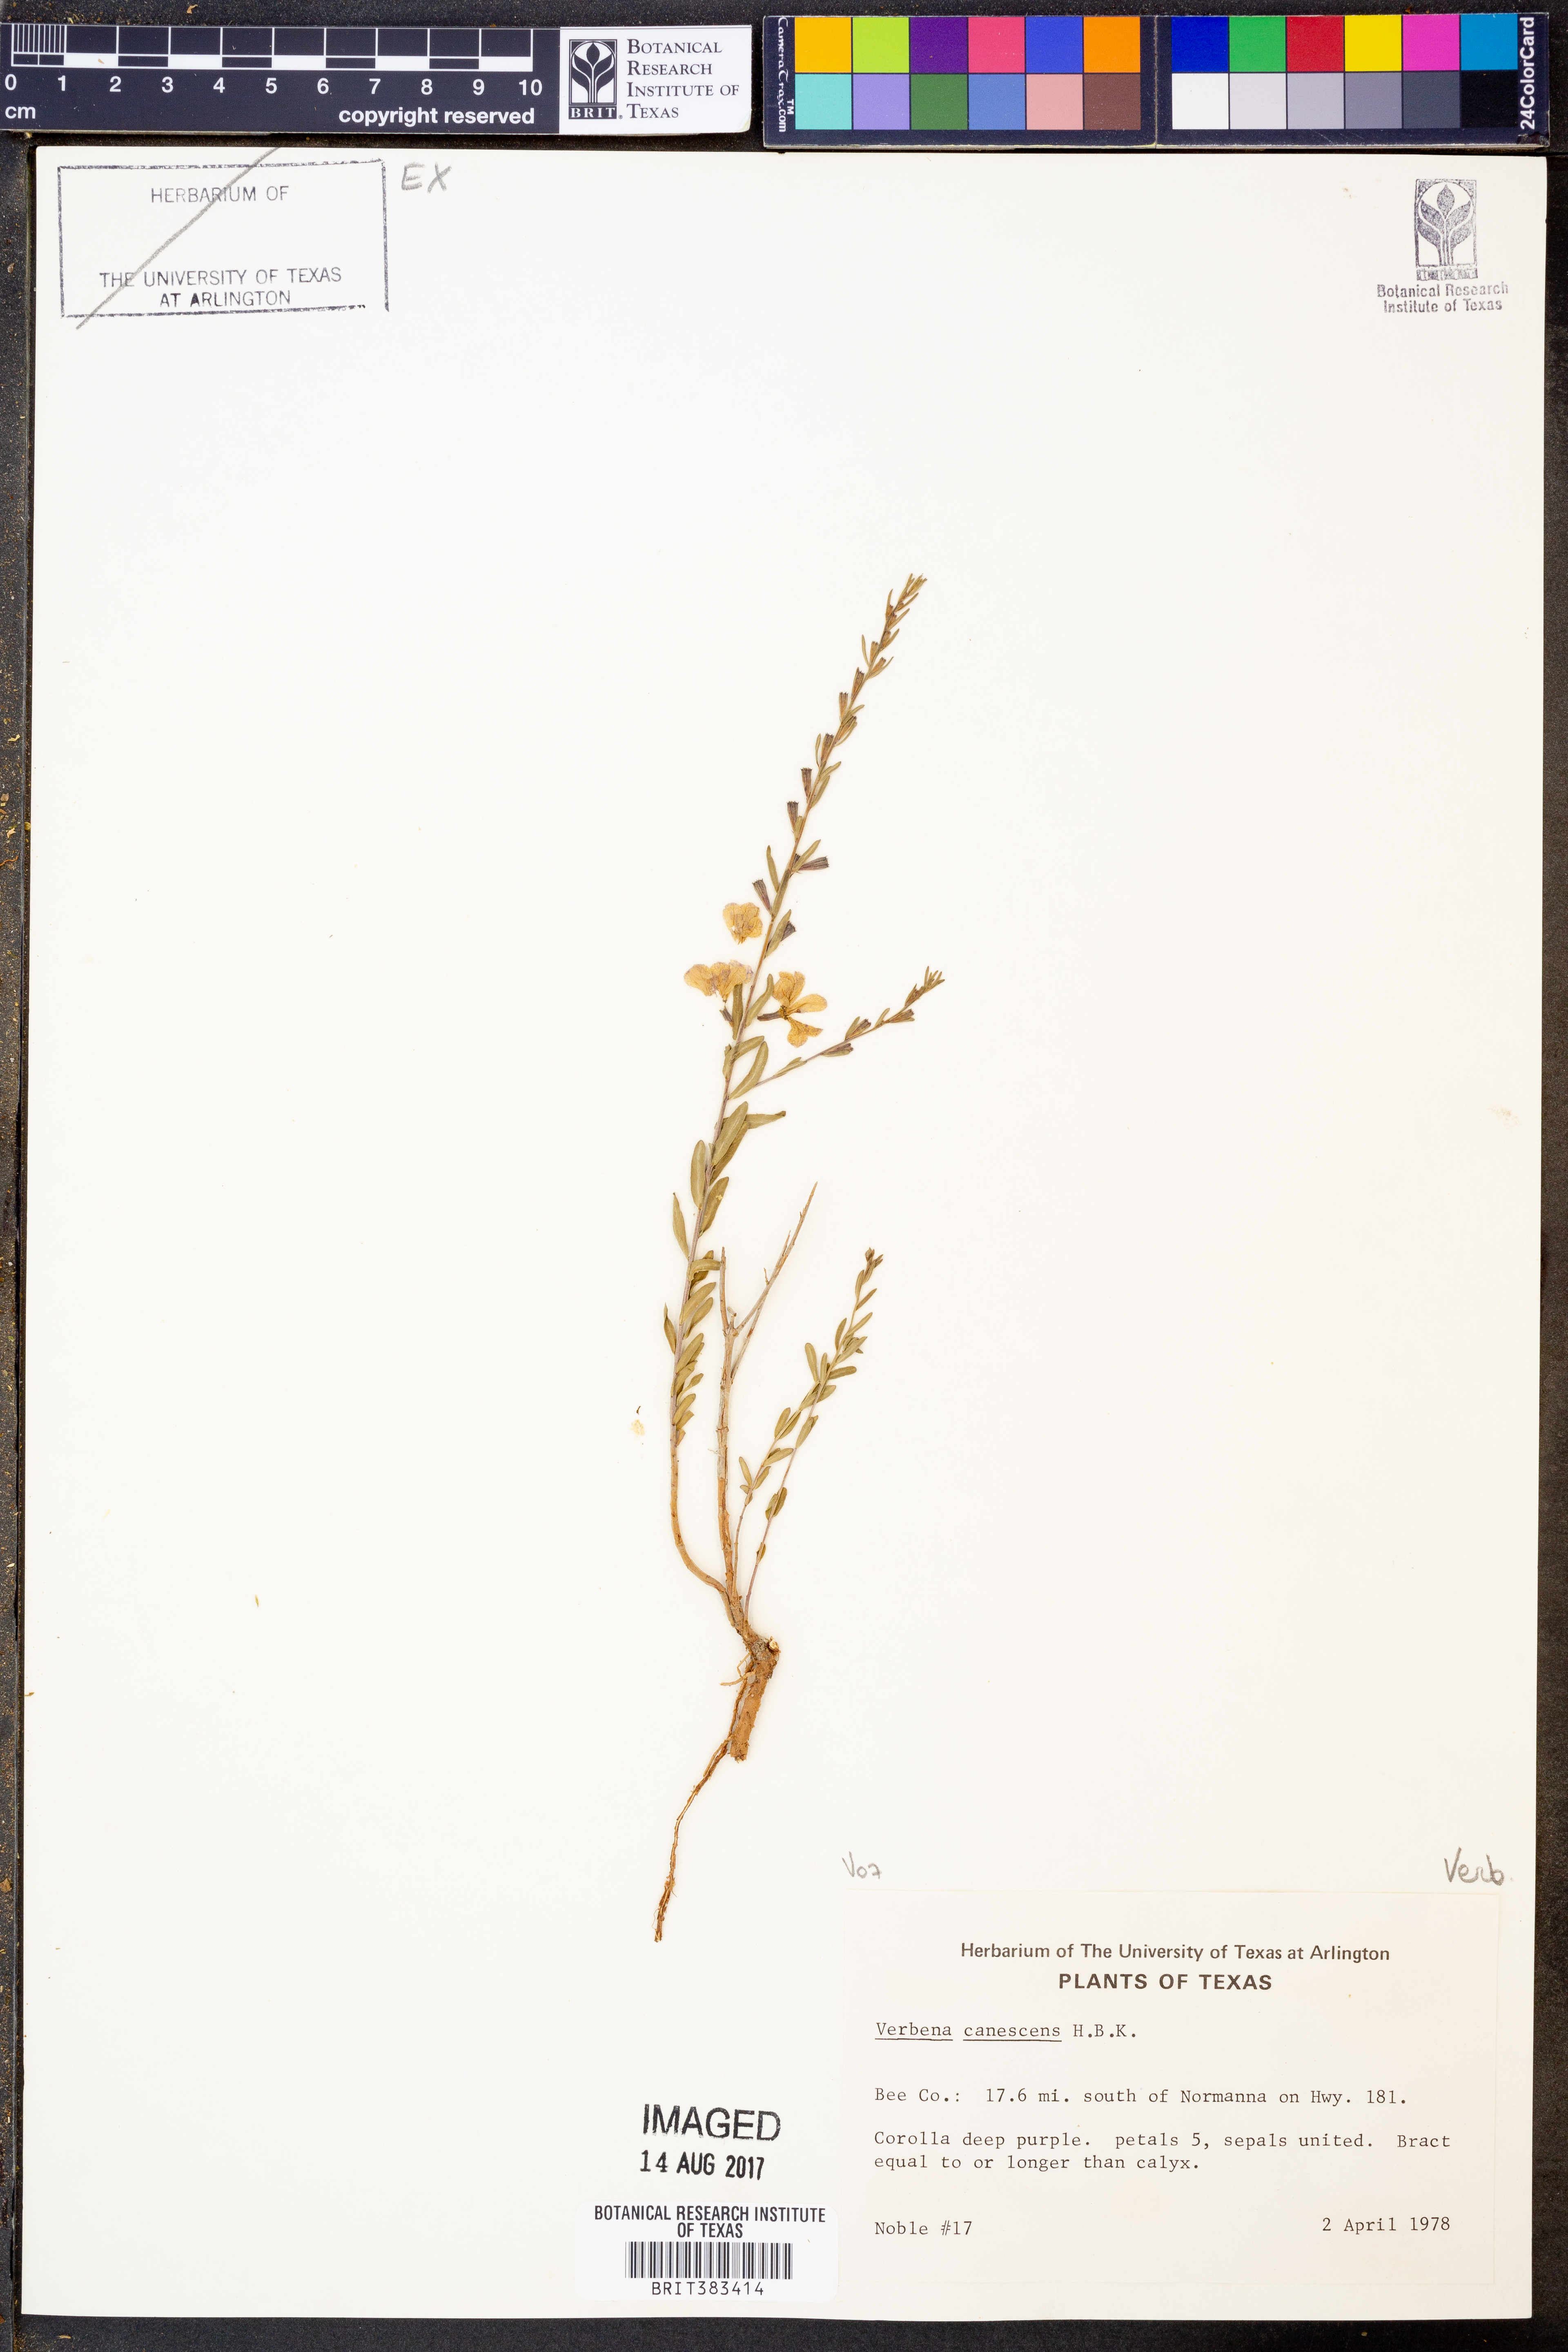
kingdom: Plantae
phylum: Tracheophyta
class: Magnoliopsida
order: Lamiales
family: Verbenaceae
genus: Verbena
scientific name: Verbena canescens
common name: Gray vervain
